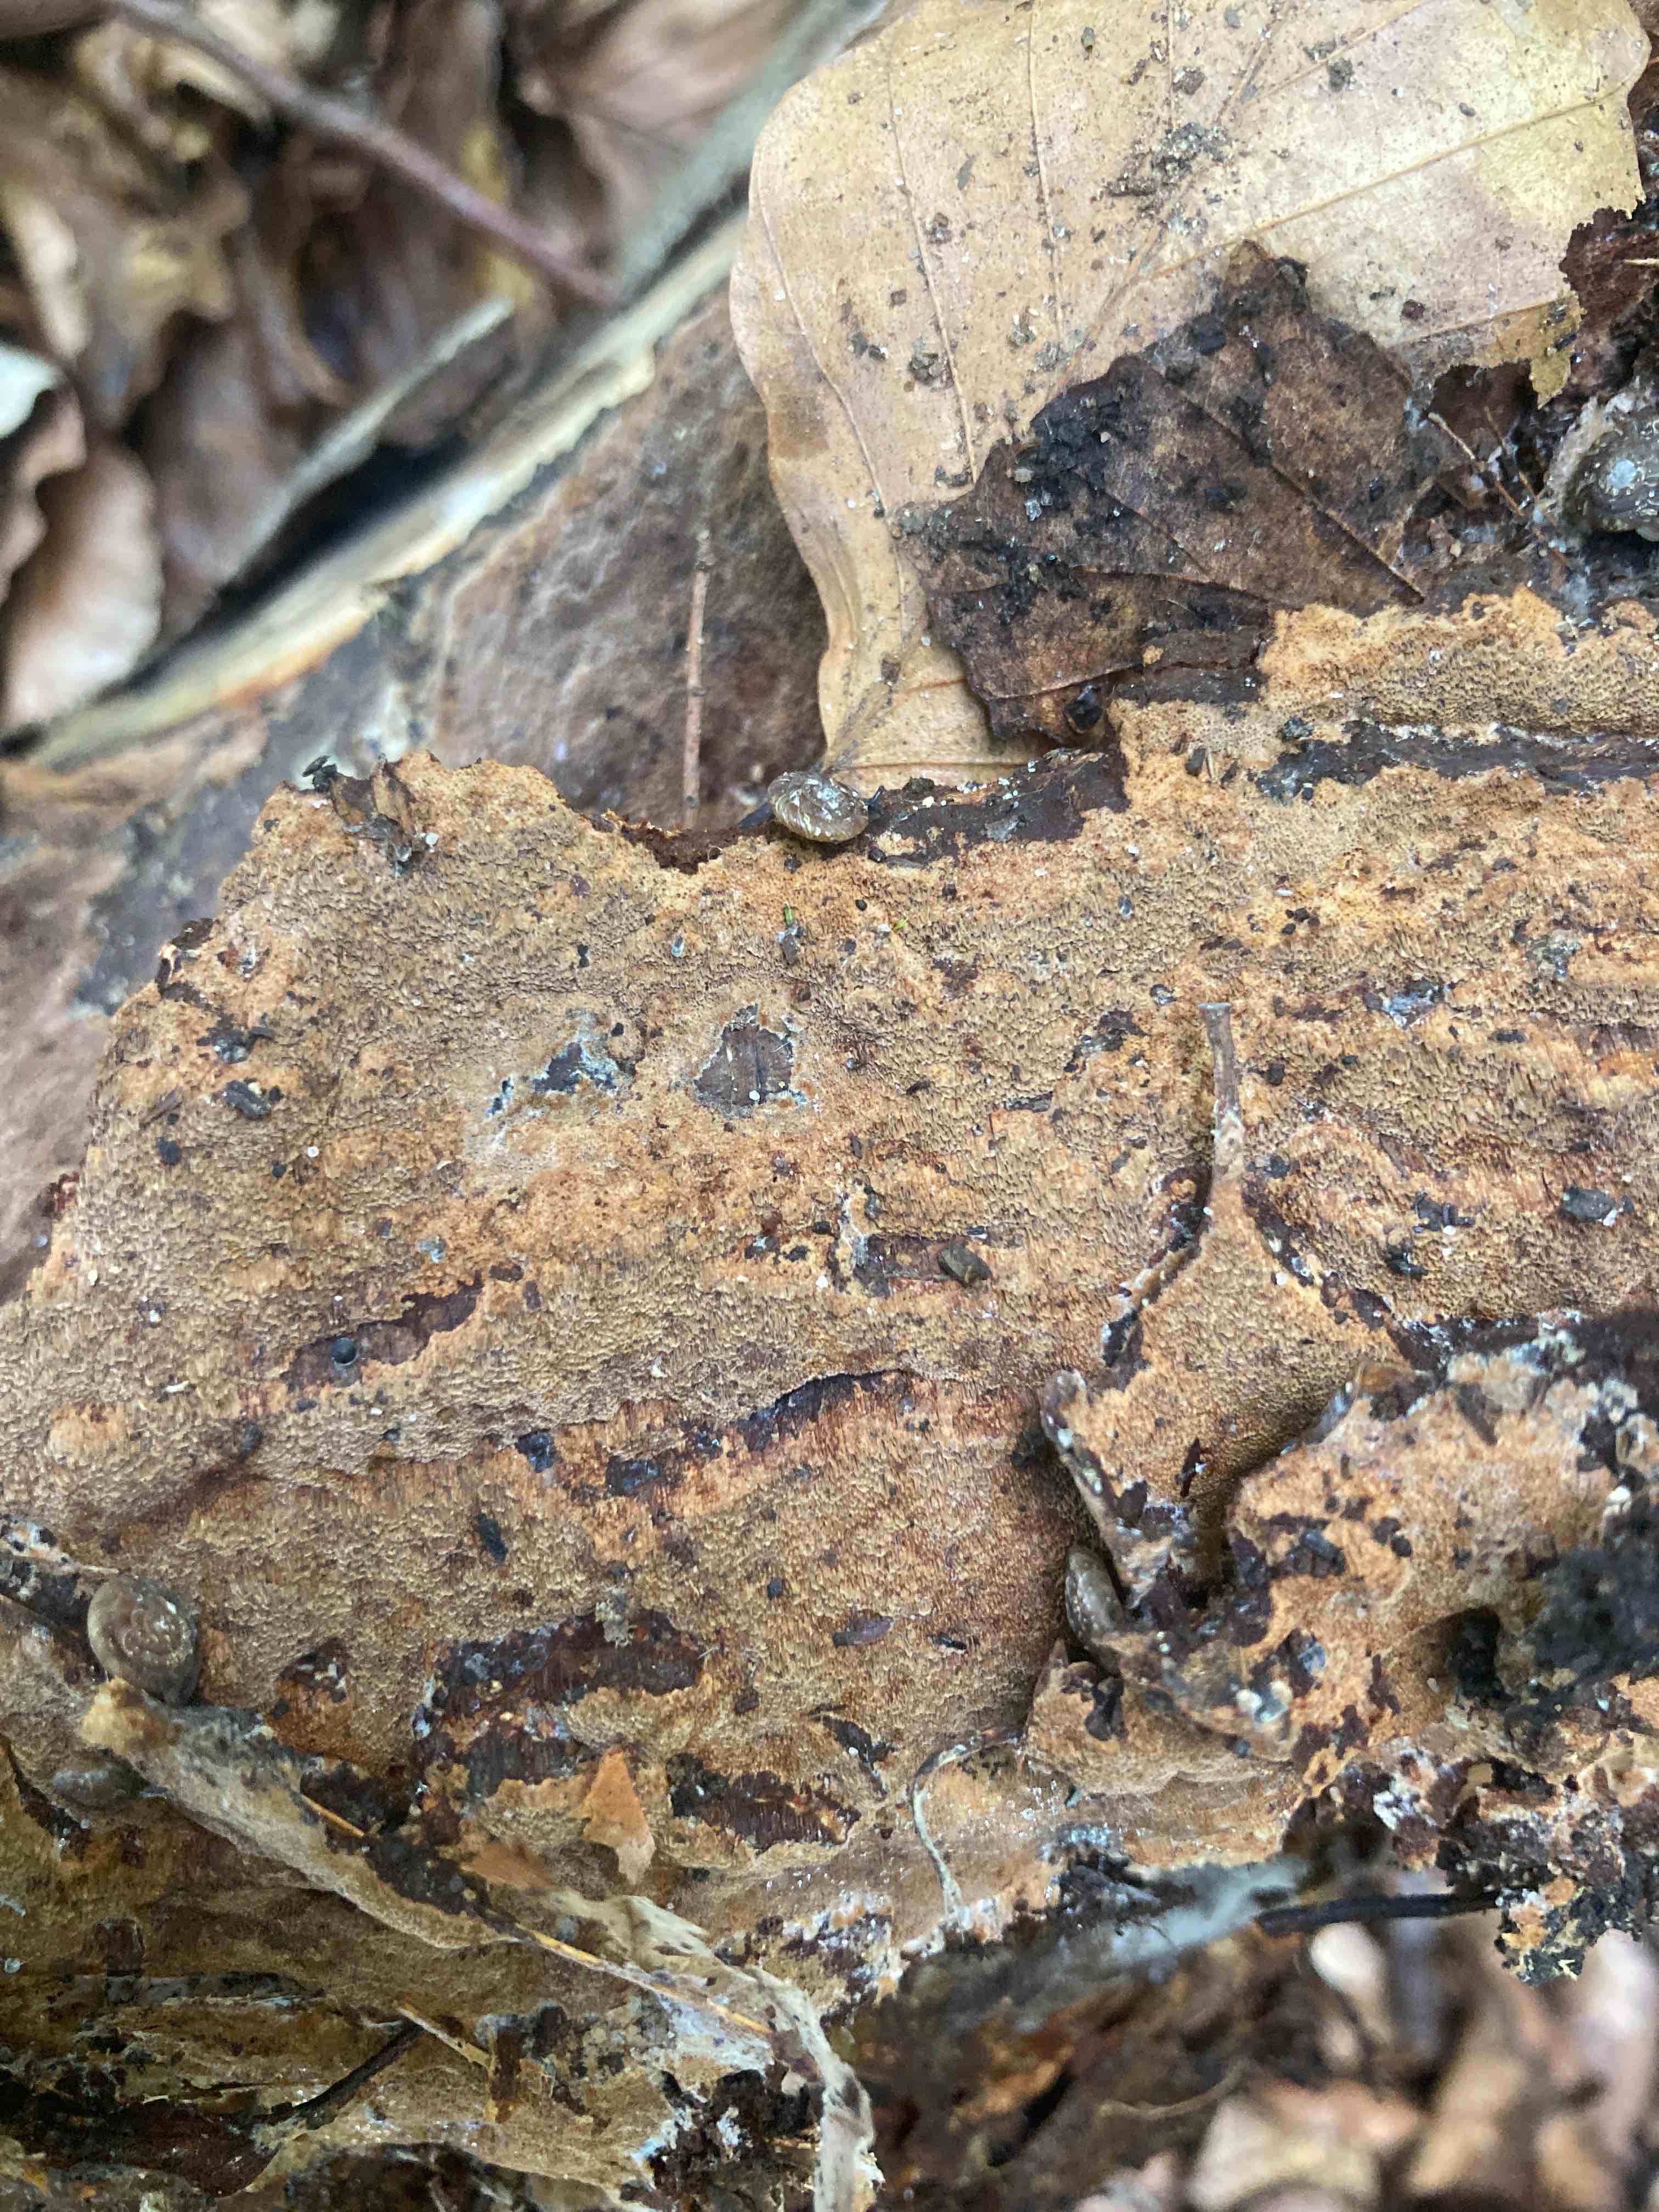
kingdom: Fungi
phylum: Basidiomycota
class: Agaricomycetes
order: Hymenochaetales
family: Hymenochaetaceae
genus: Fuscoporia
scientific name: Fuscoporia ferruginosa
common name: rustbrun ildporesvamp
